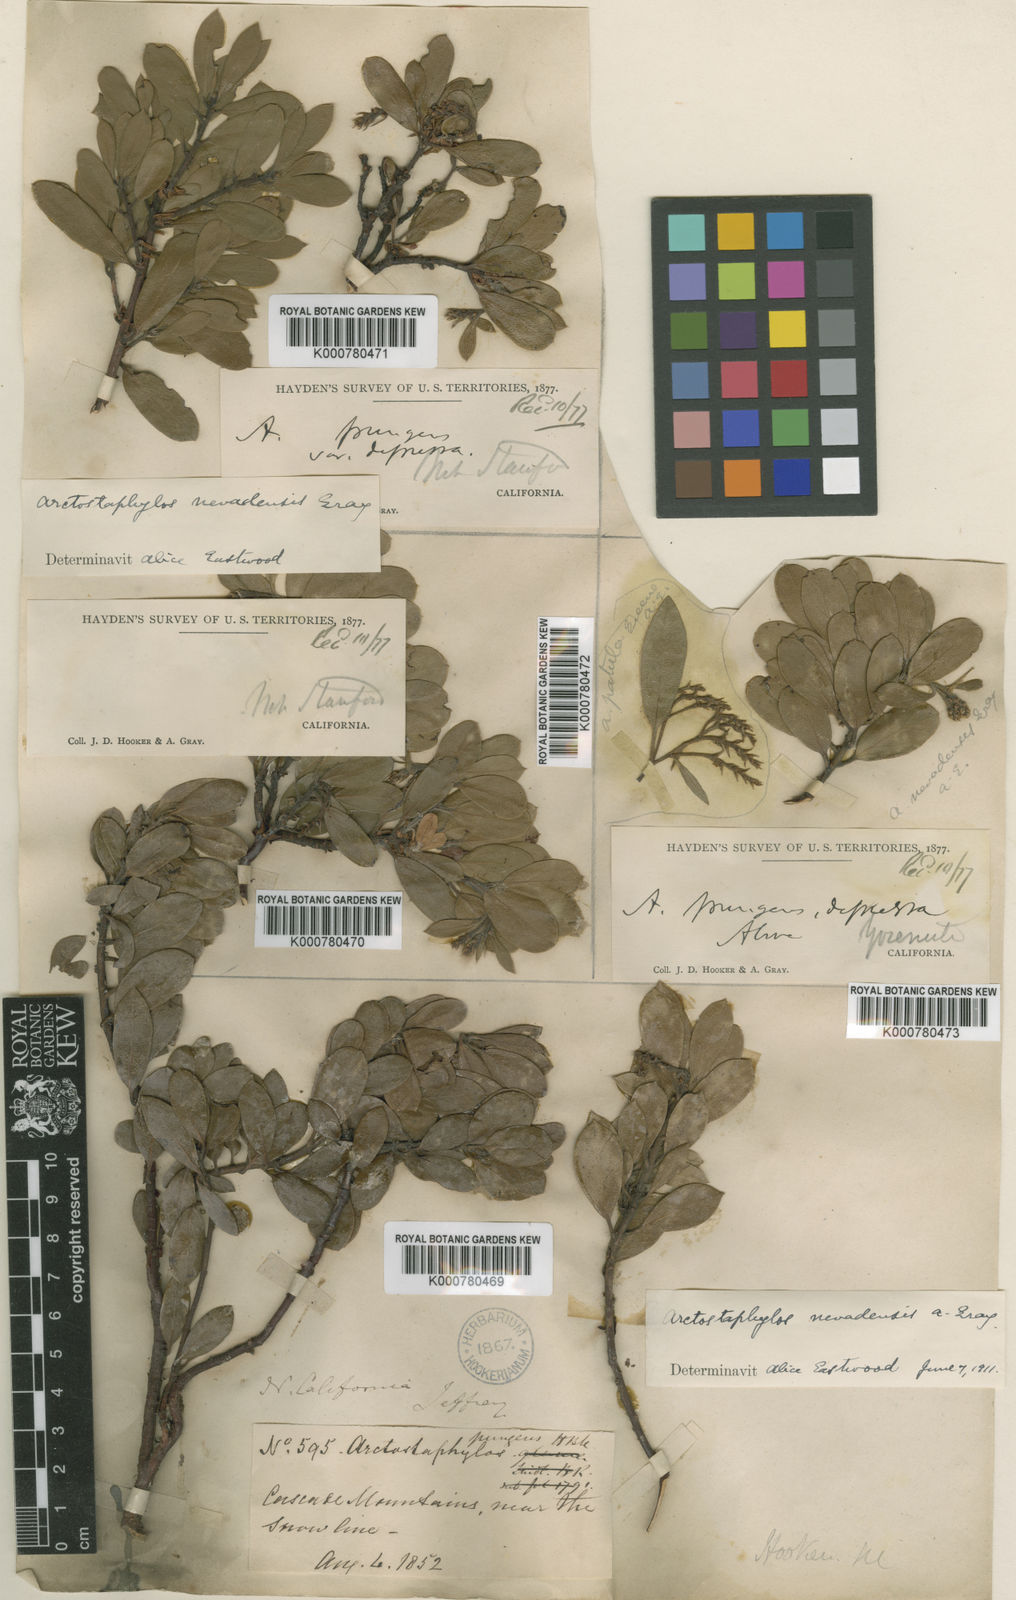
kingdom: Plantae
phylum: Tracheophyta
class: Magnoliopsida
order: Ericales
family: Ericaceae
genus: Arctostaphylos
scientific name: Arctostaphylos nevadensis
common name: Pinemat manzanita
